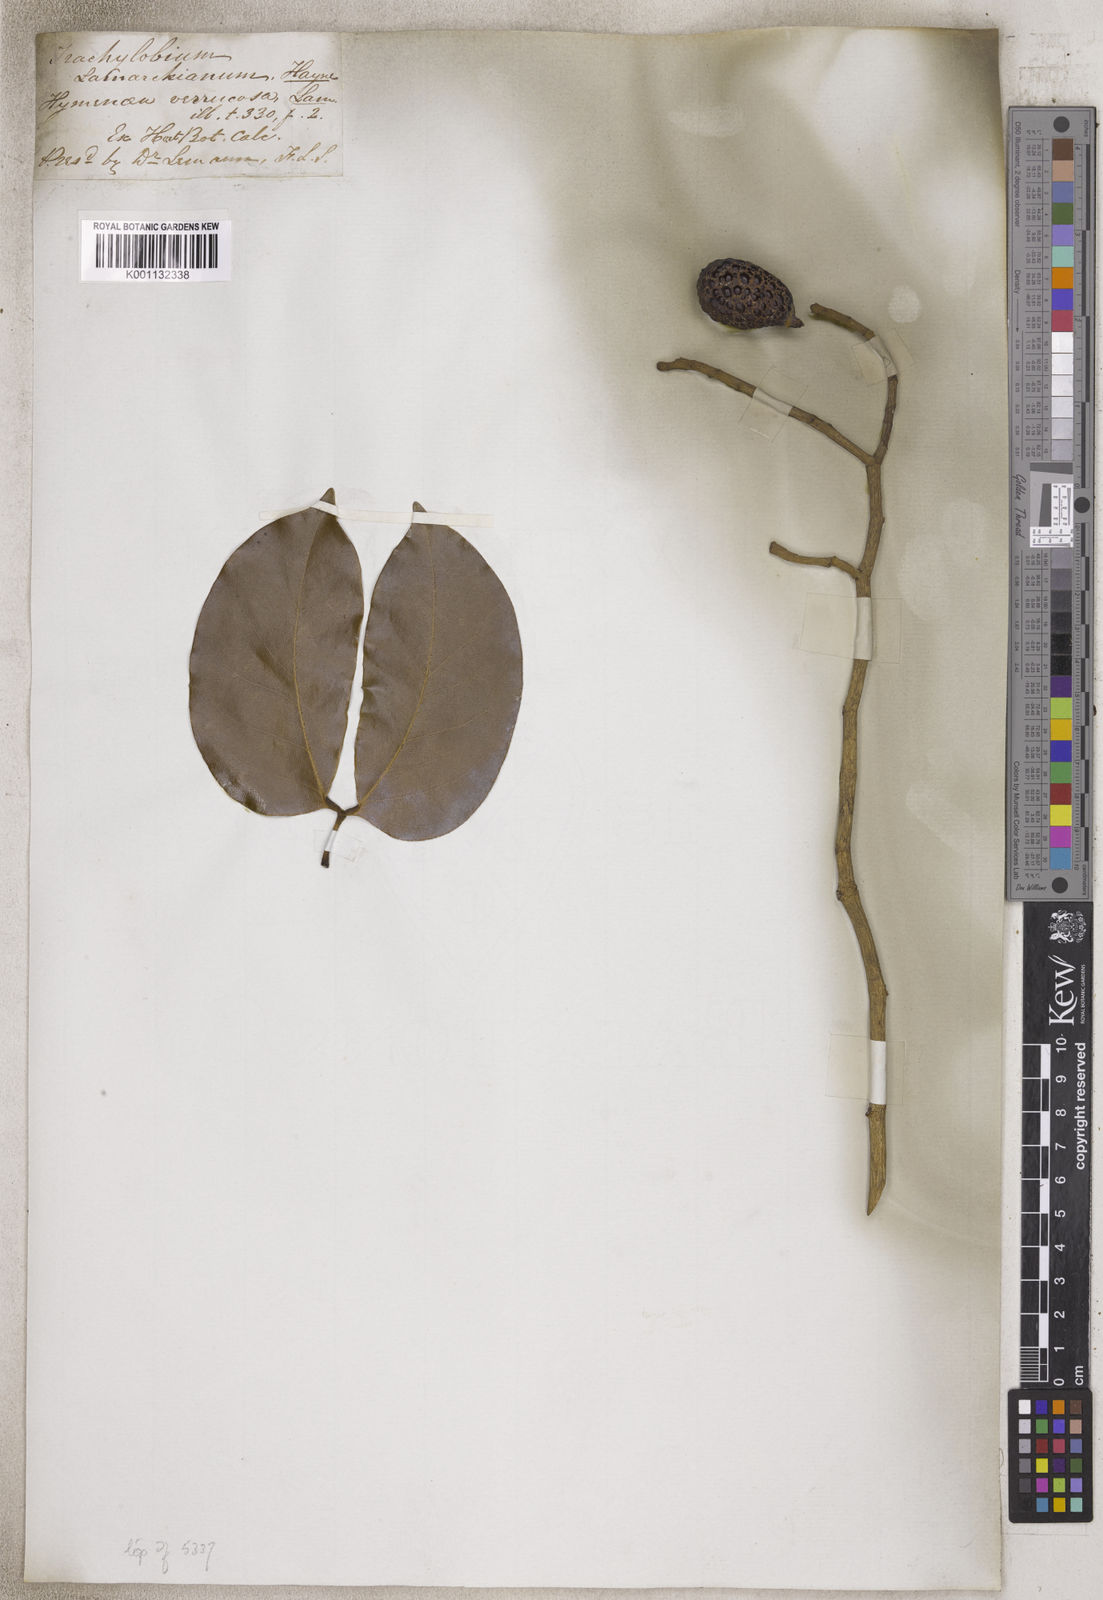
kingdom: Plantae
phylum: Tracheophyta
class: Magnoliopsida
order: Lamiales
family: Acanthaceae
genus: Justicia
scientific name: Justicia
